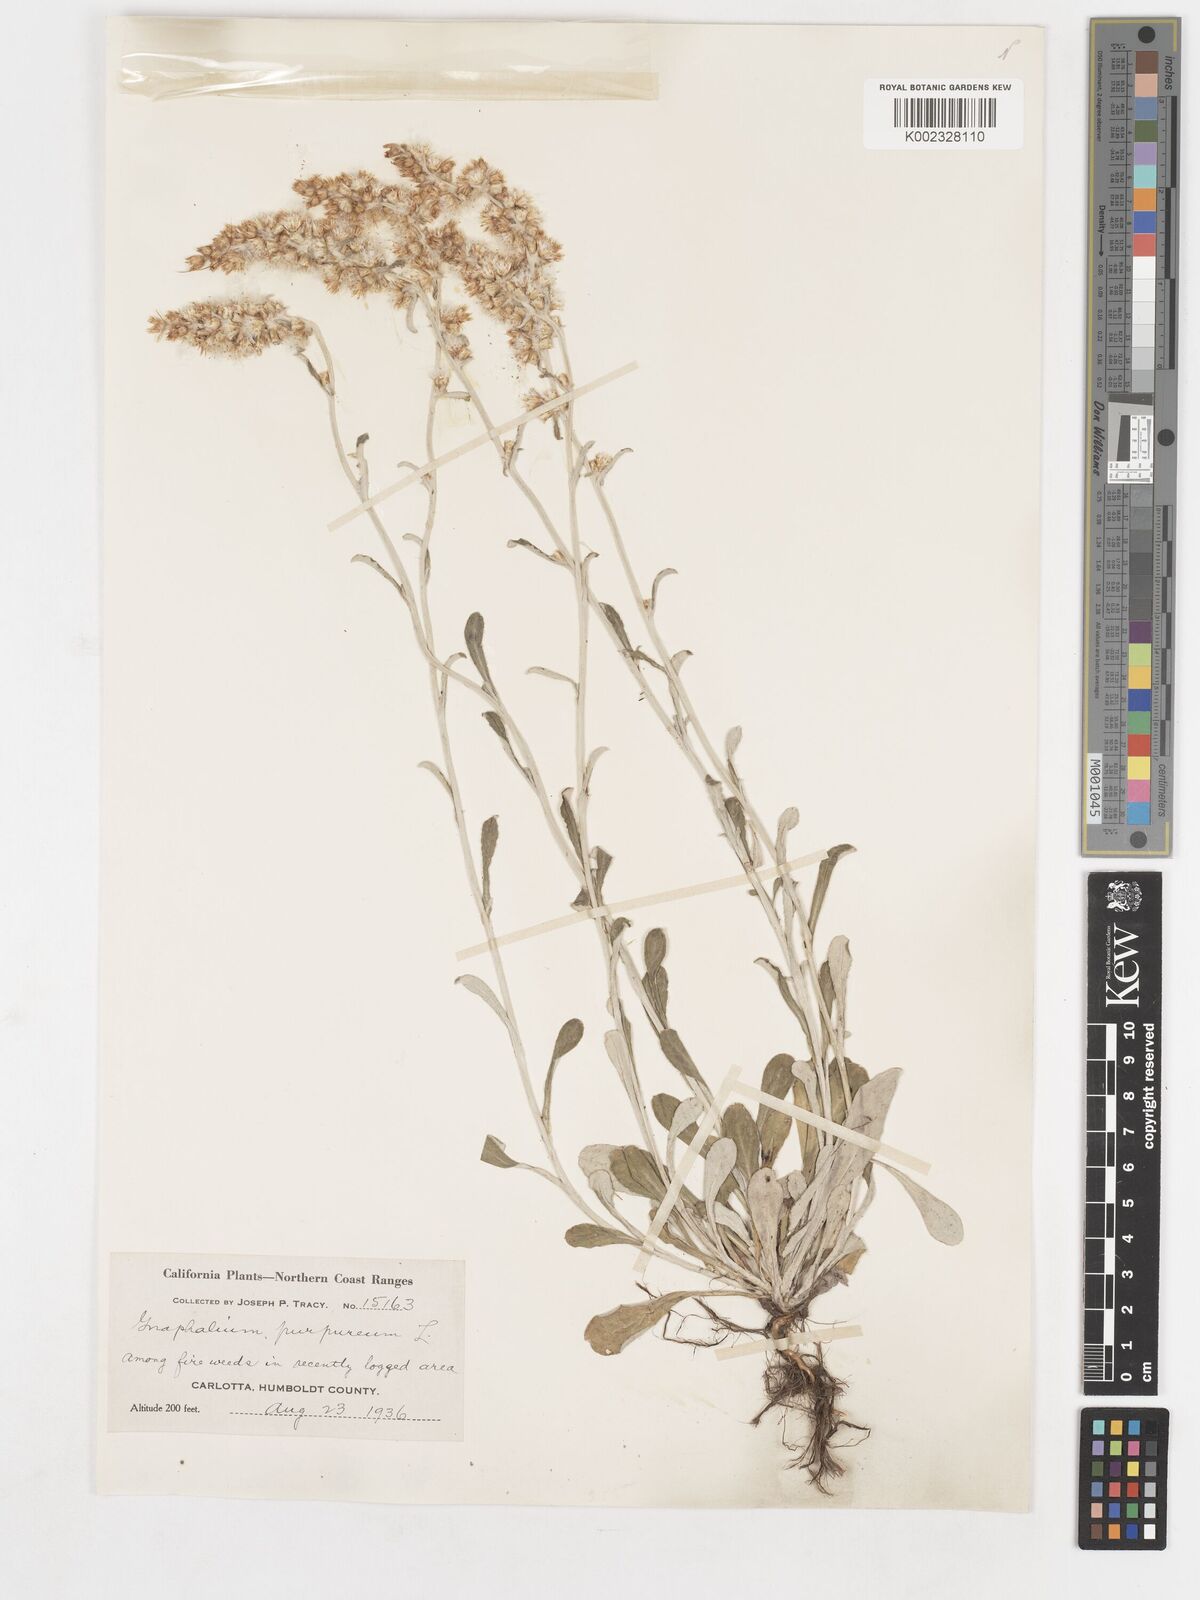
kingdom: Plantae
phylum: Tracheophyta
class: Magnoliopsida
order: Asterales
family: Asteraceae
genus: Gamochaeta
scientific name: Gamochaeta purpurea
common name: Purple cudweed
